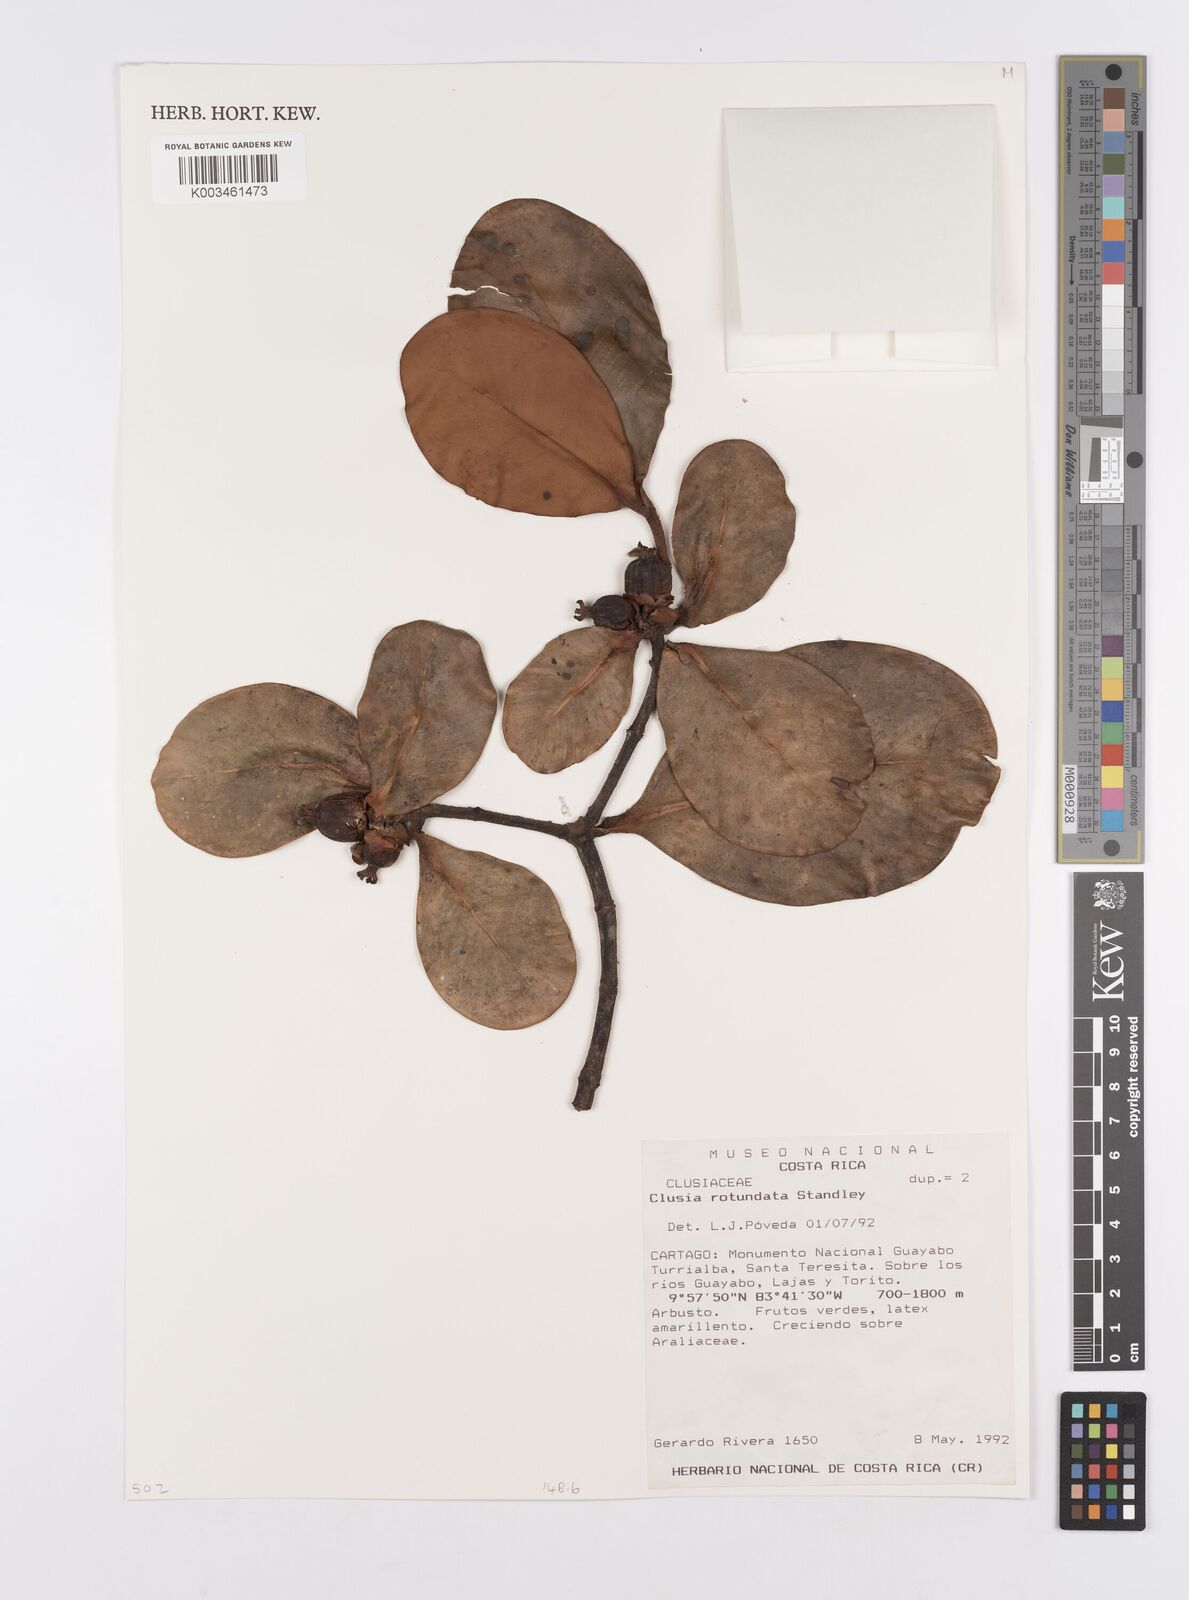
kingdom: Plantae
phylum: Tracheophyta
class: Magnoliopsida
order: Malpighiales
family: Clusiaceae
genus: Clusia
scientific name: Clusia rotundata
